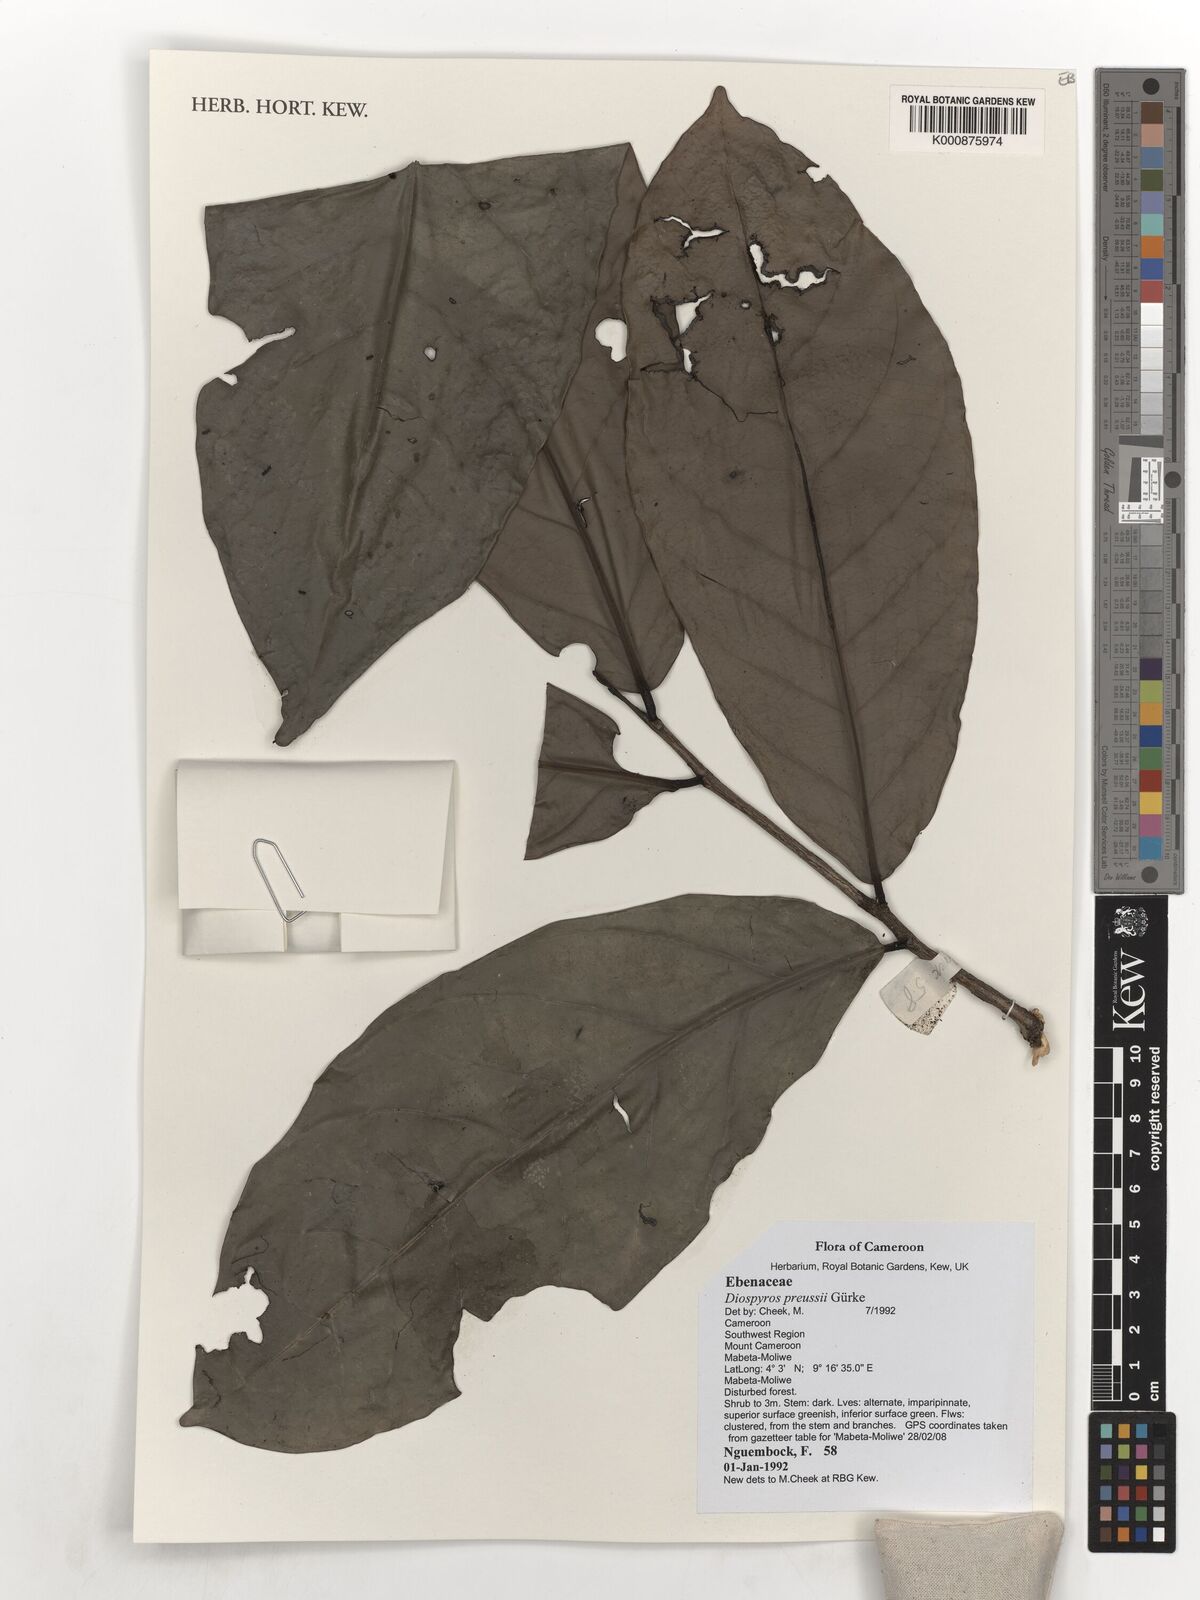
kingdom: Plantae
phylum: Tracheophyta
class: Magnoliopsida
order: Ericales
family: Ebenaceae
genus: Diospyros
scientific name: Diospyros preussii
